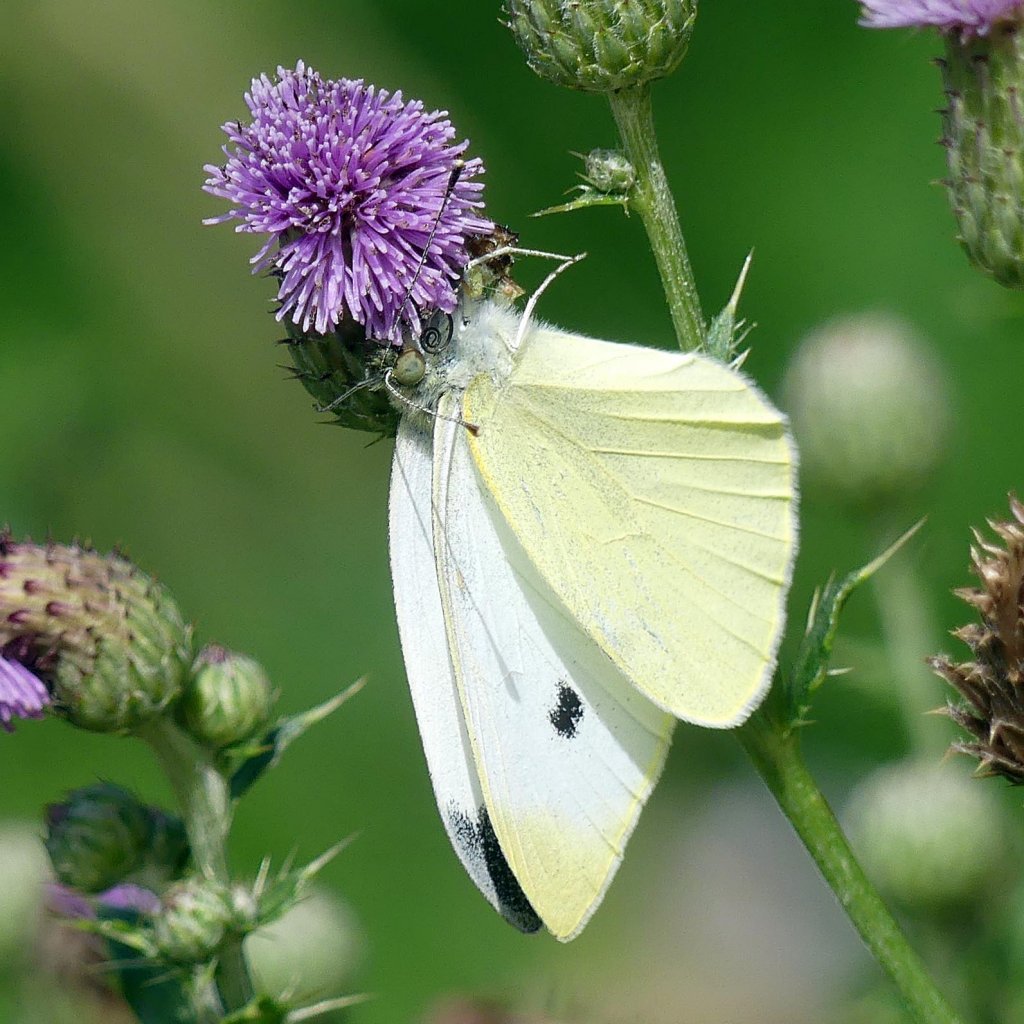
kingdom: Animalia
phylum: Arthropoda
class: Insecta
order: Lepidoptera
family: Pieridae
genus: Pieris
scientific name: Pieris rapae
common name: Cabbage White
